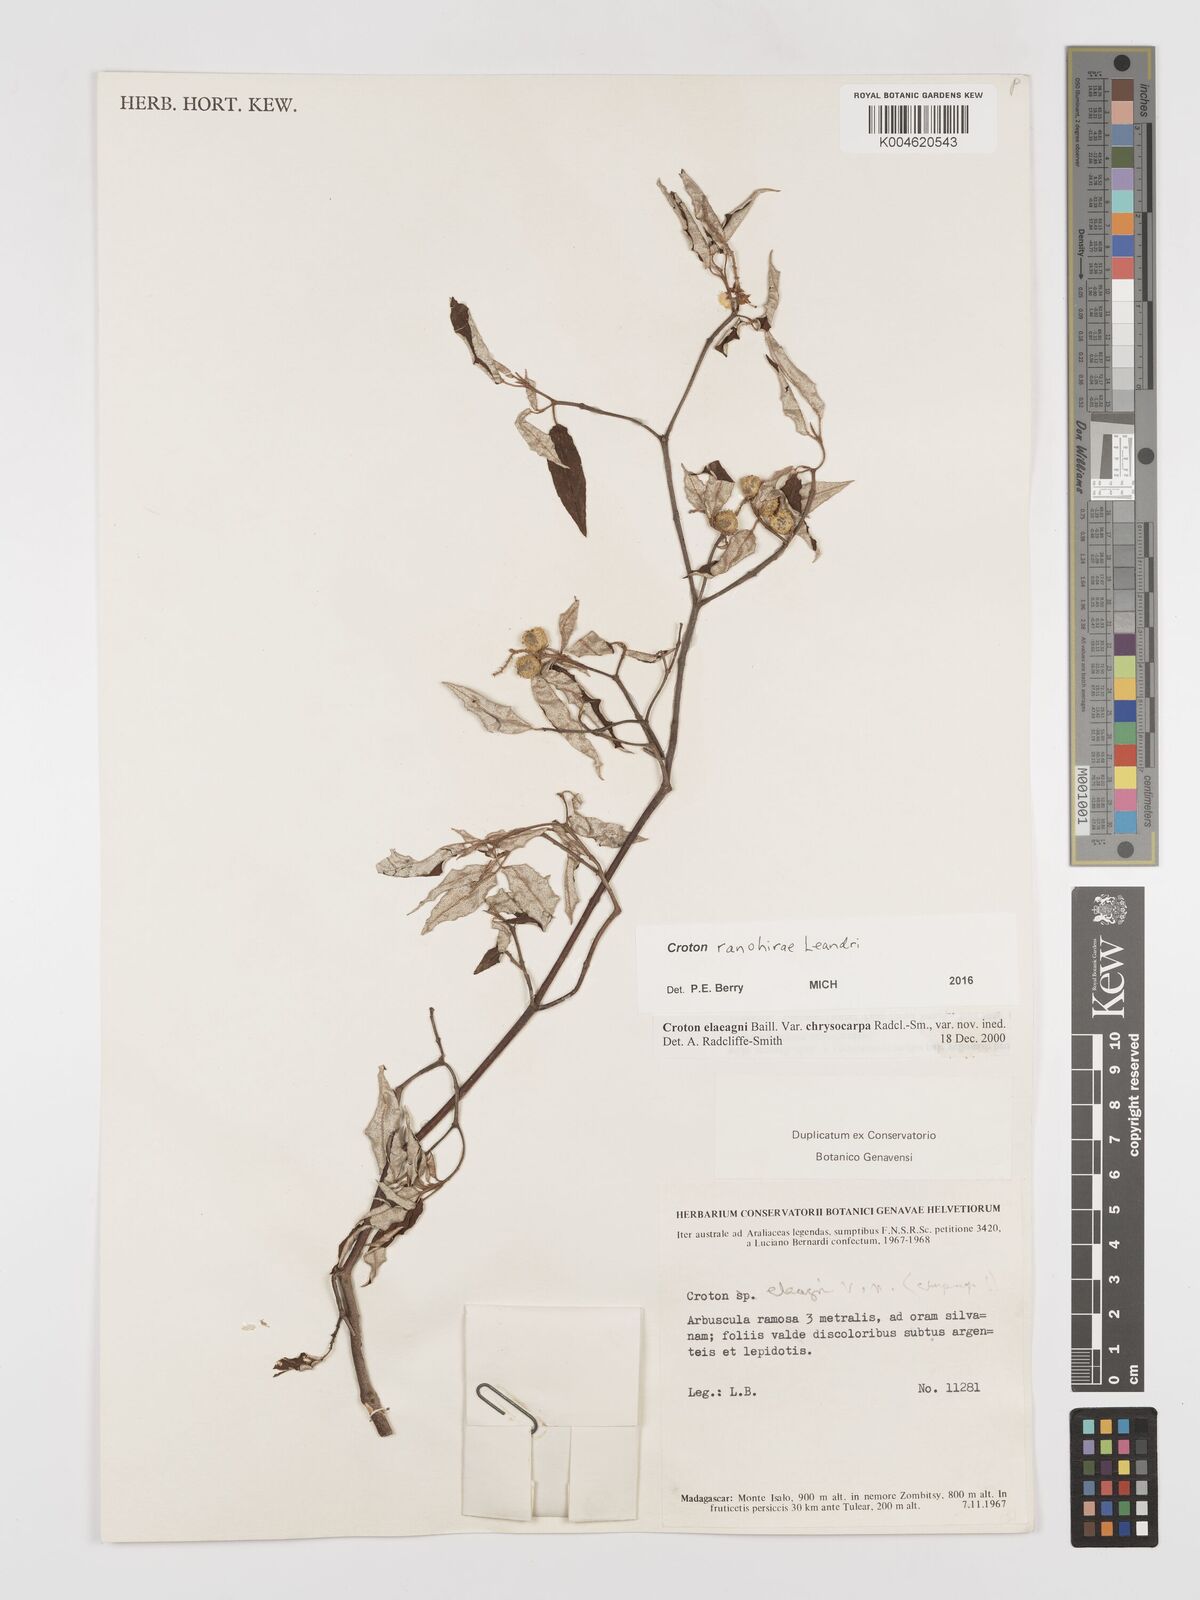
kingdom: Plantae
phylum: Tracheophyta
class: Magnoliopsida
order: Malpighiales
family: Euphorbiaceae
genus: Croton
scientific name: Croton catatii
